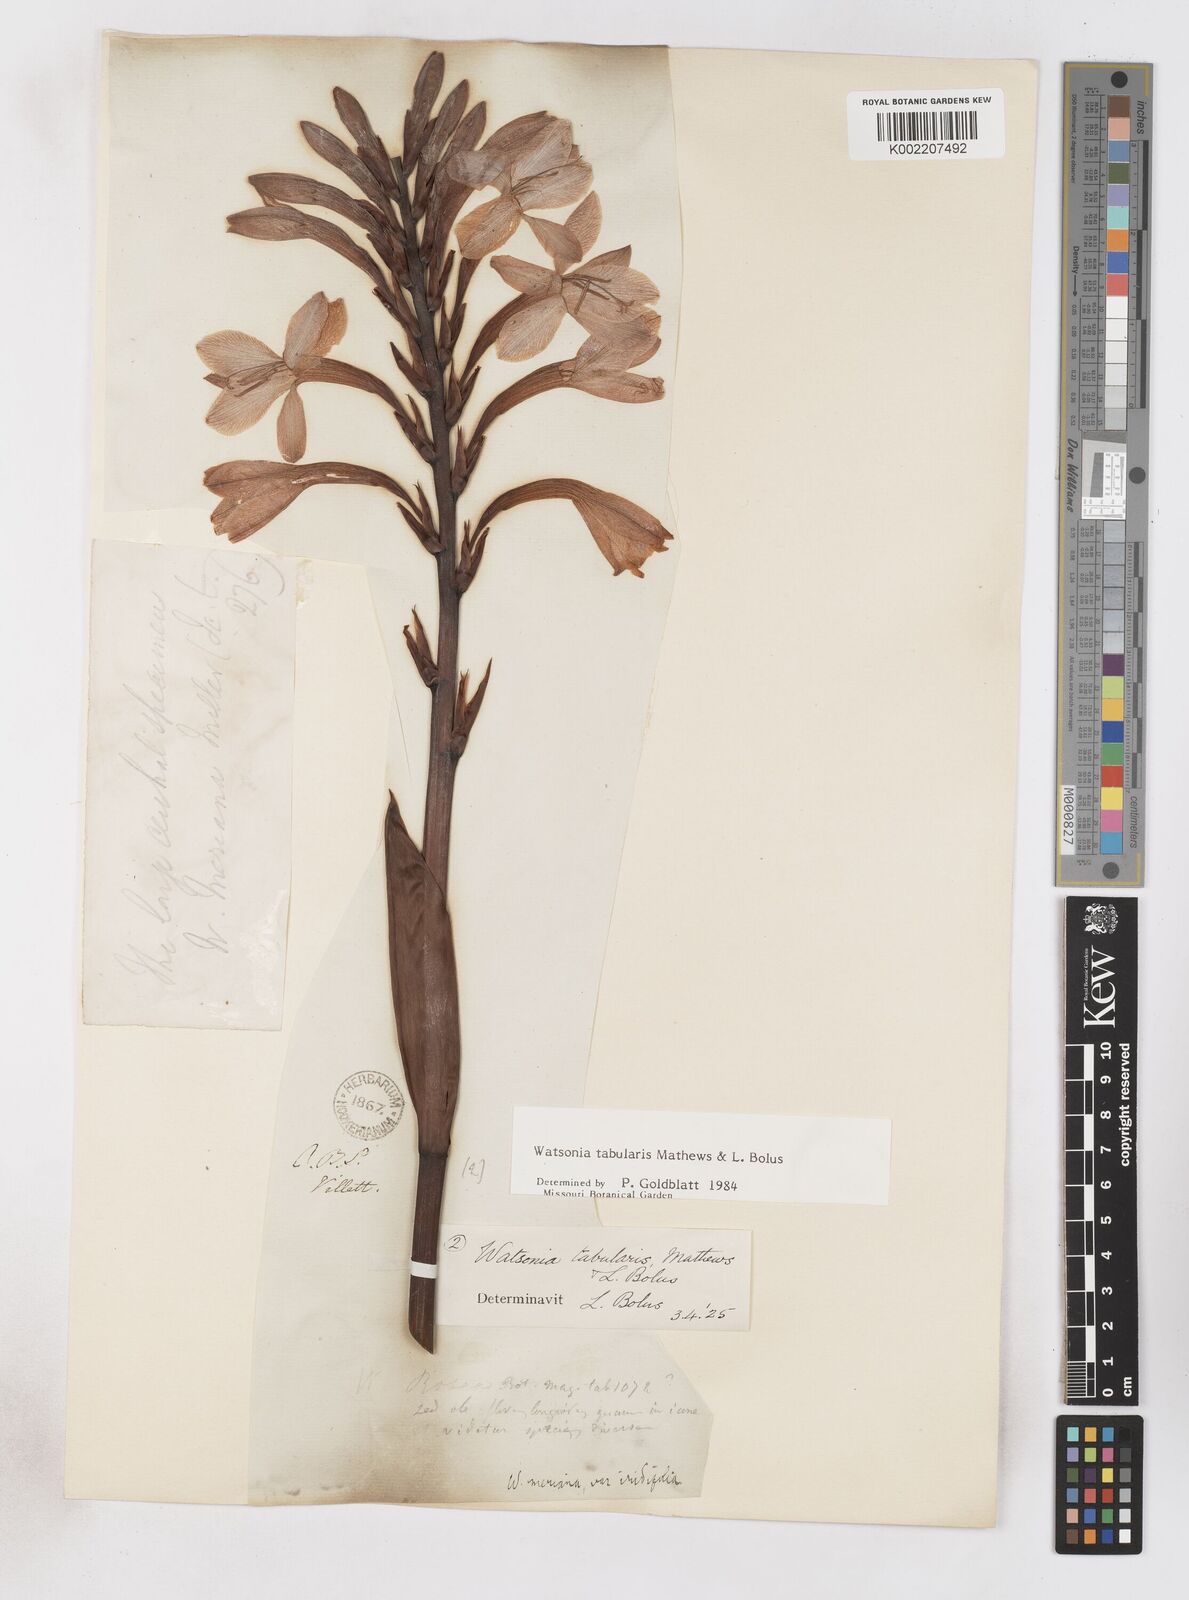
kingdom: Plantae
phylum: Tracheophyta
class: Liliopsida
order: Asparagales
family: Iridaceae
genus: Watsonia
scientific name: Watsonia tabularis
